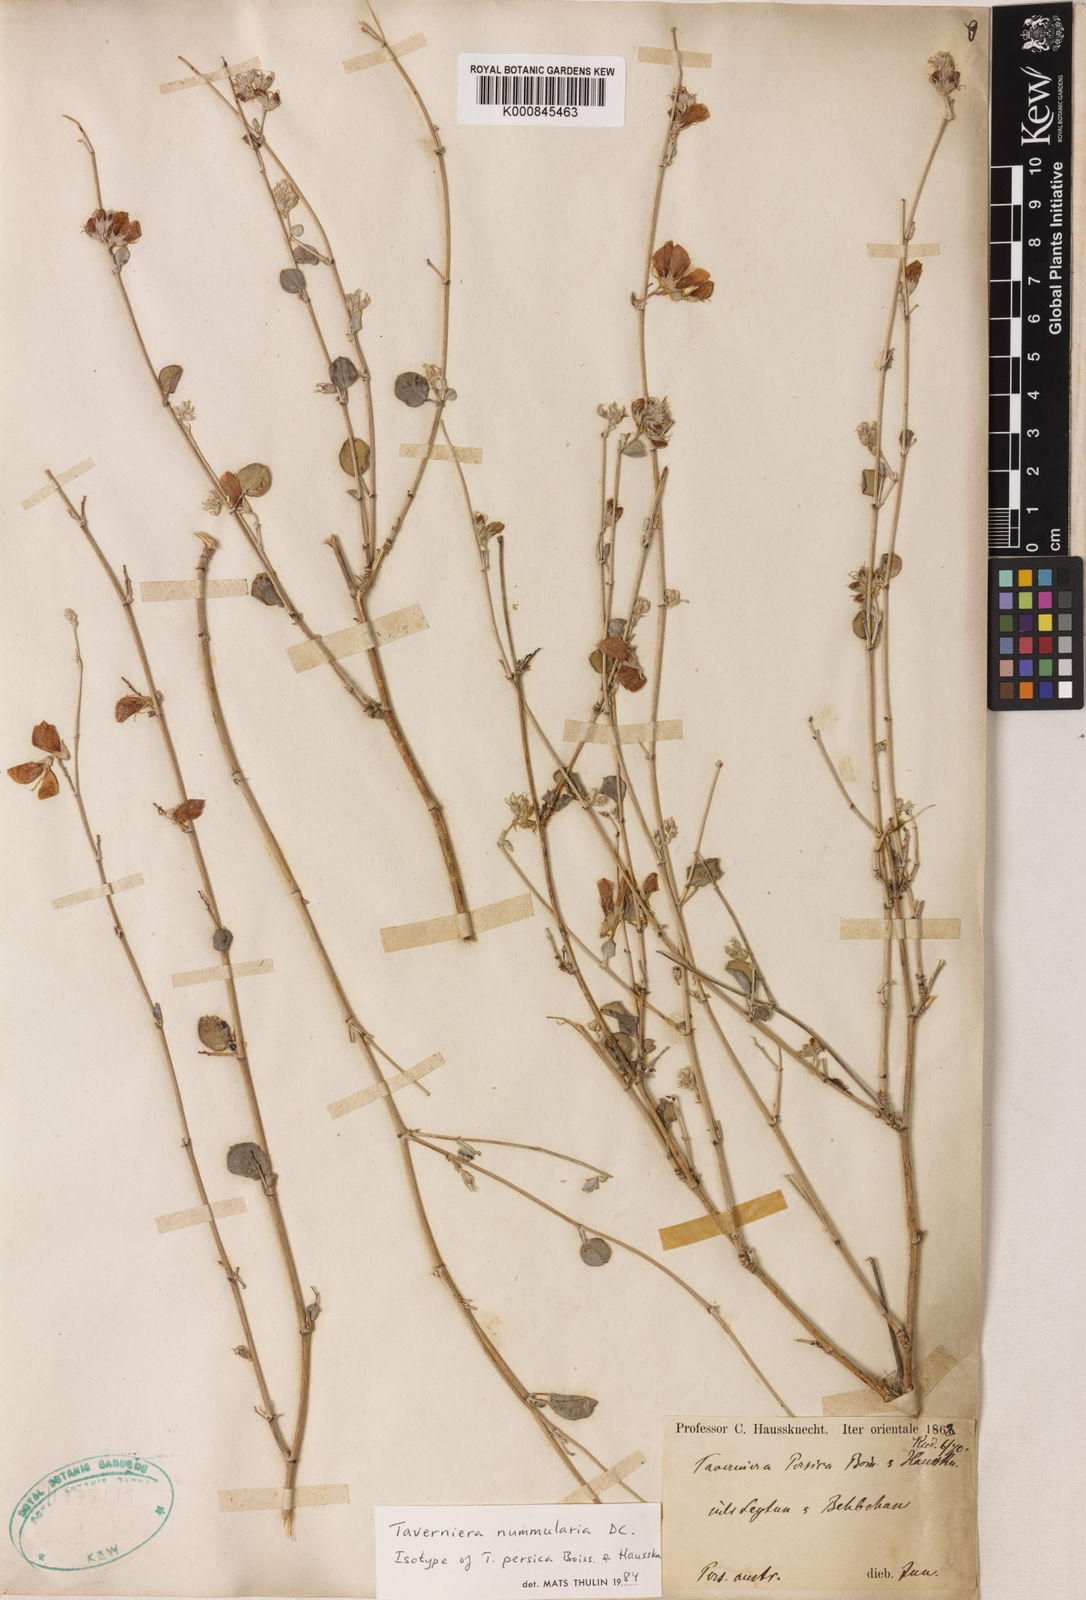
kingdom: Plantae
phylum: Tracheophyta
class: Magnoliopsida
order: Fabales
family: Fabaceae
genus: Taverniera
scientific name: Taverniera nummularia
